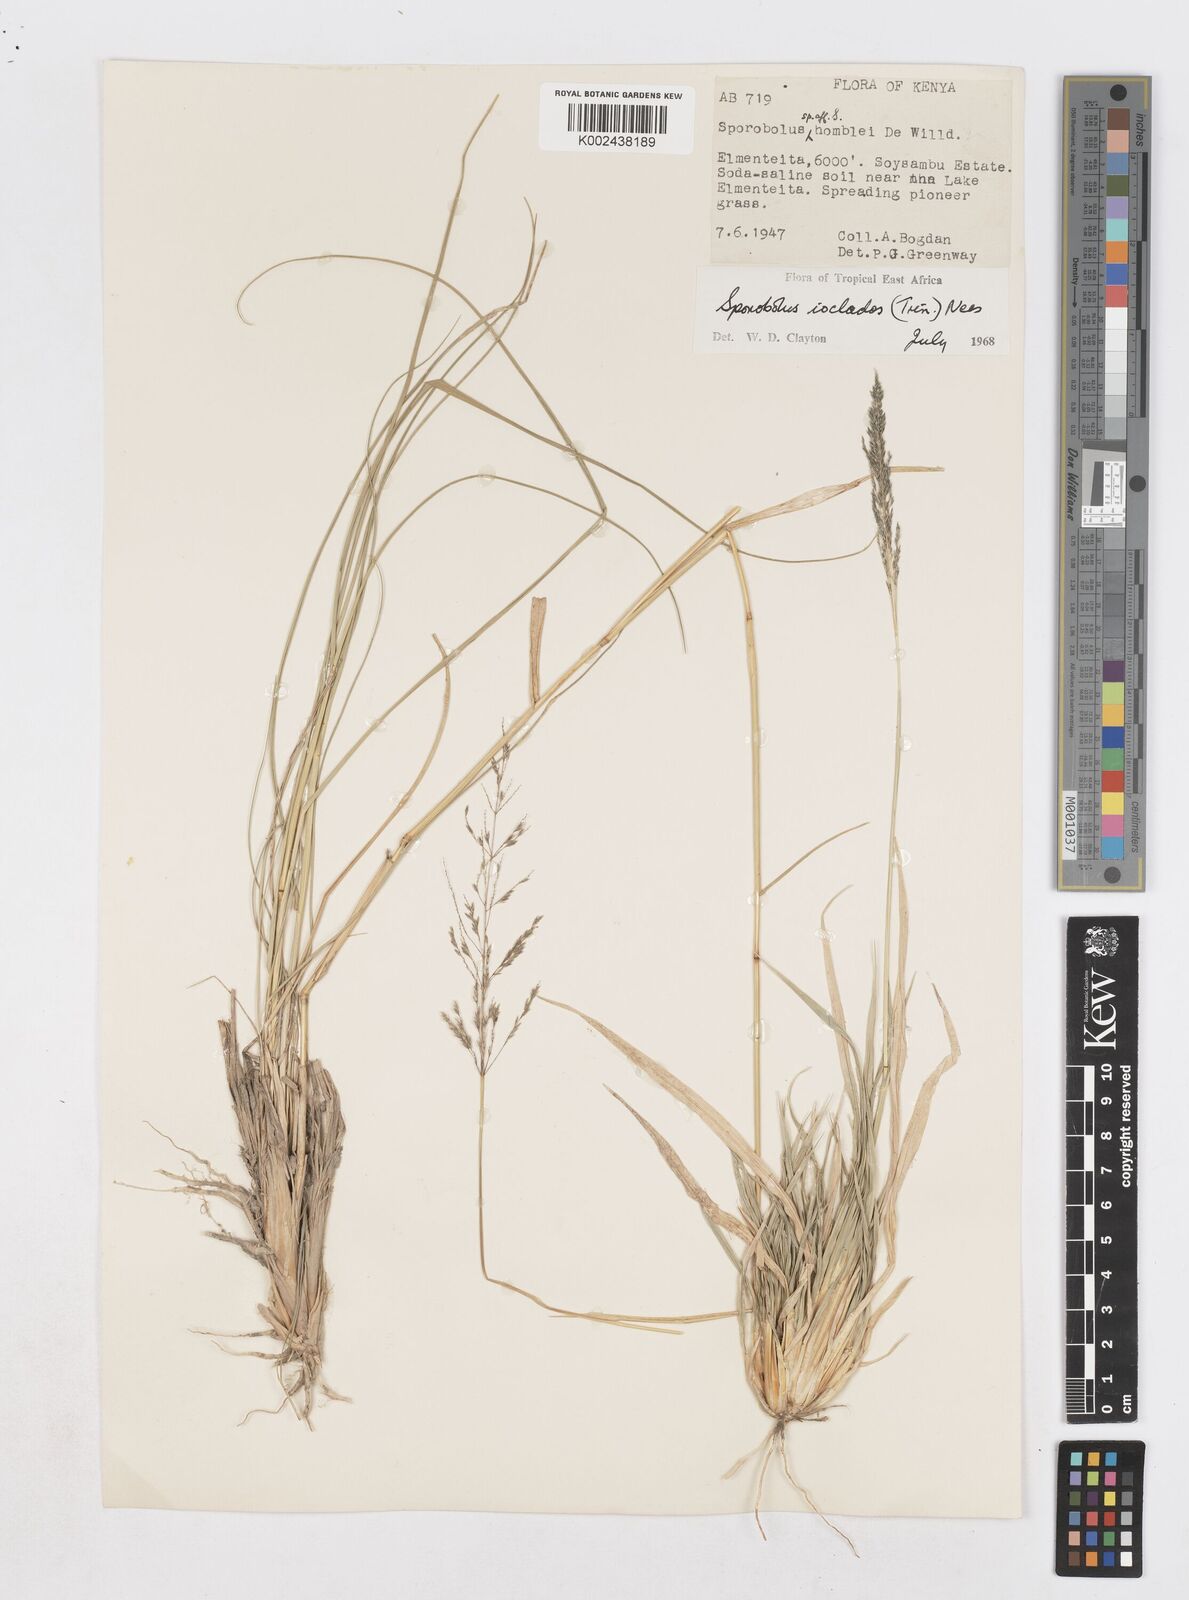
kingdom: Plantae
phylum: Tracheophyta
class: Liliopsida
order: Poales
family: Poaceae
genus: Sporobolus
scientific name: Sporobolus ioclados
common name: Pan dropseed
